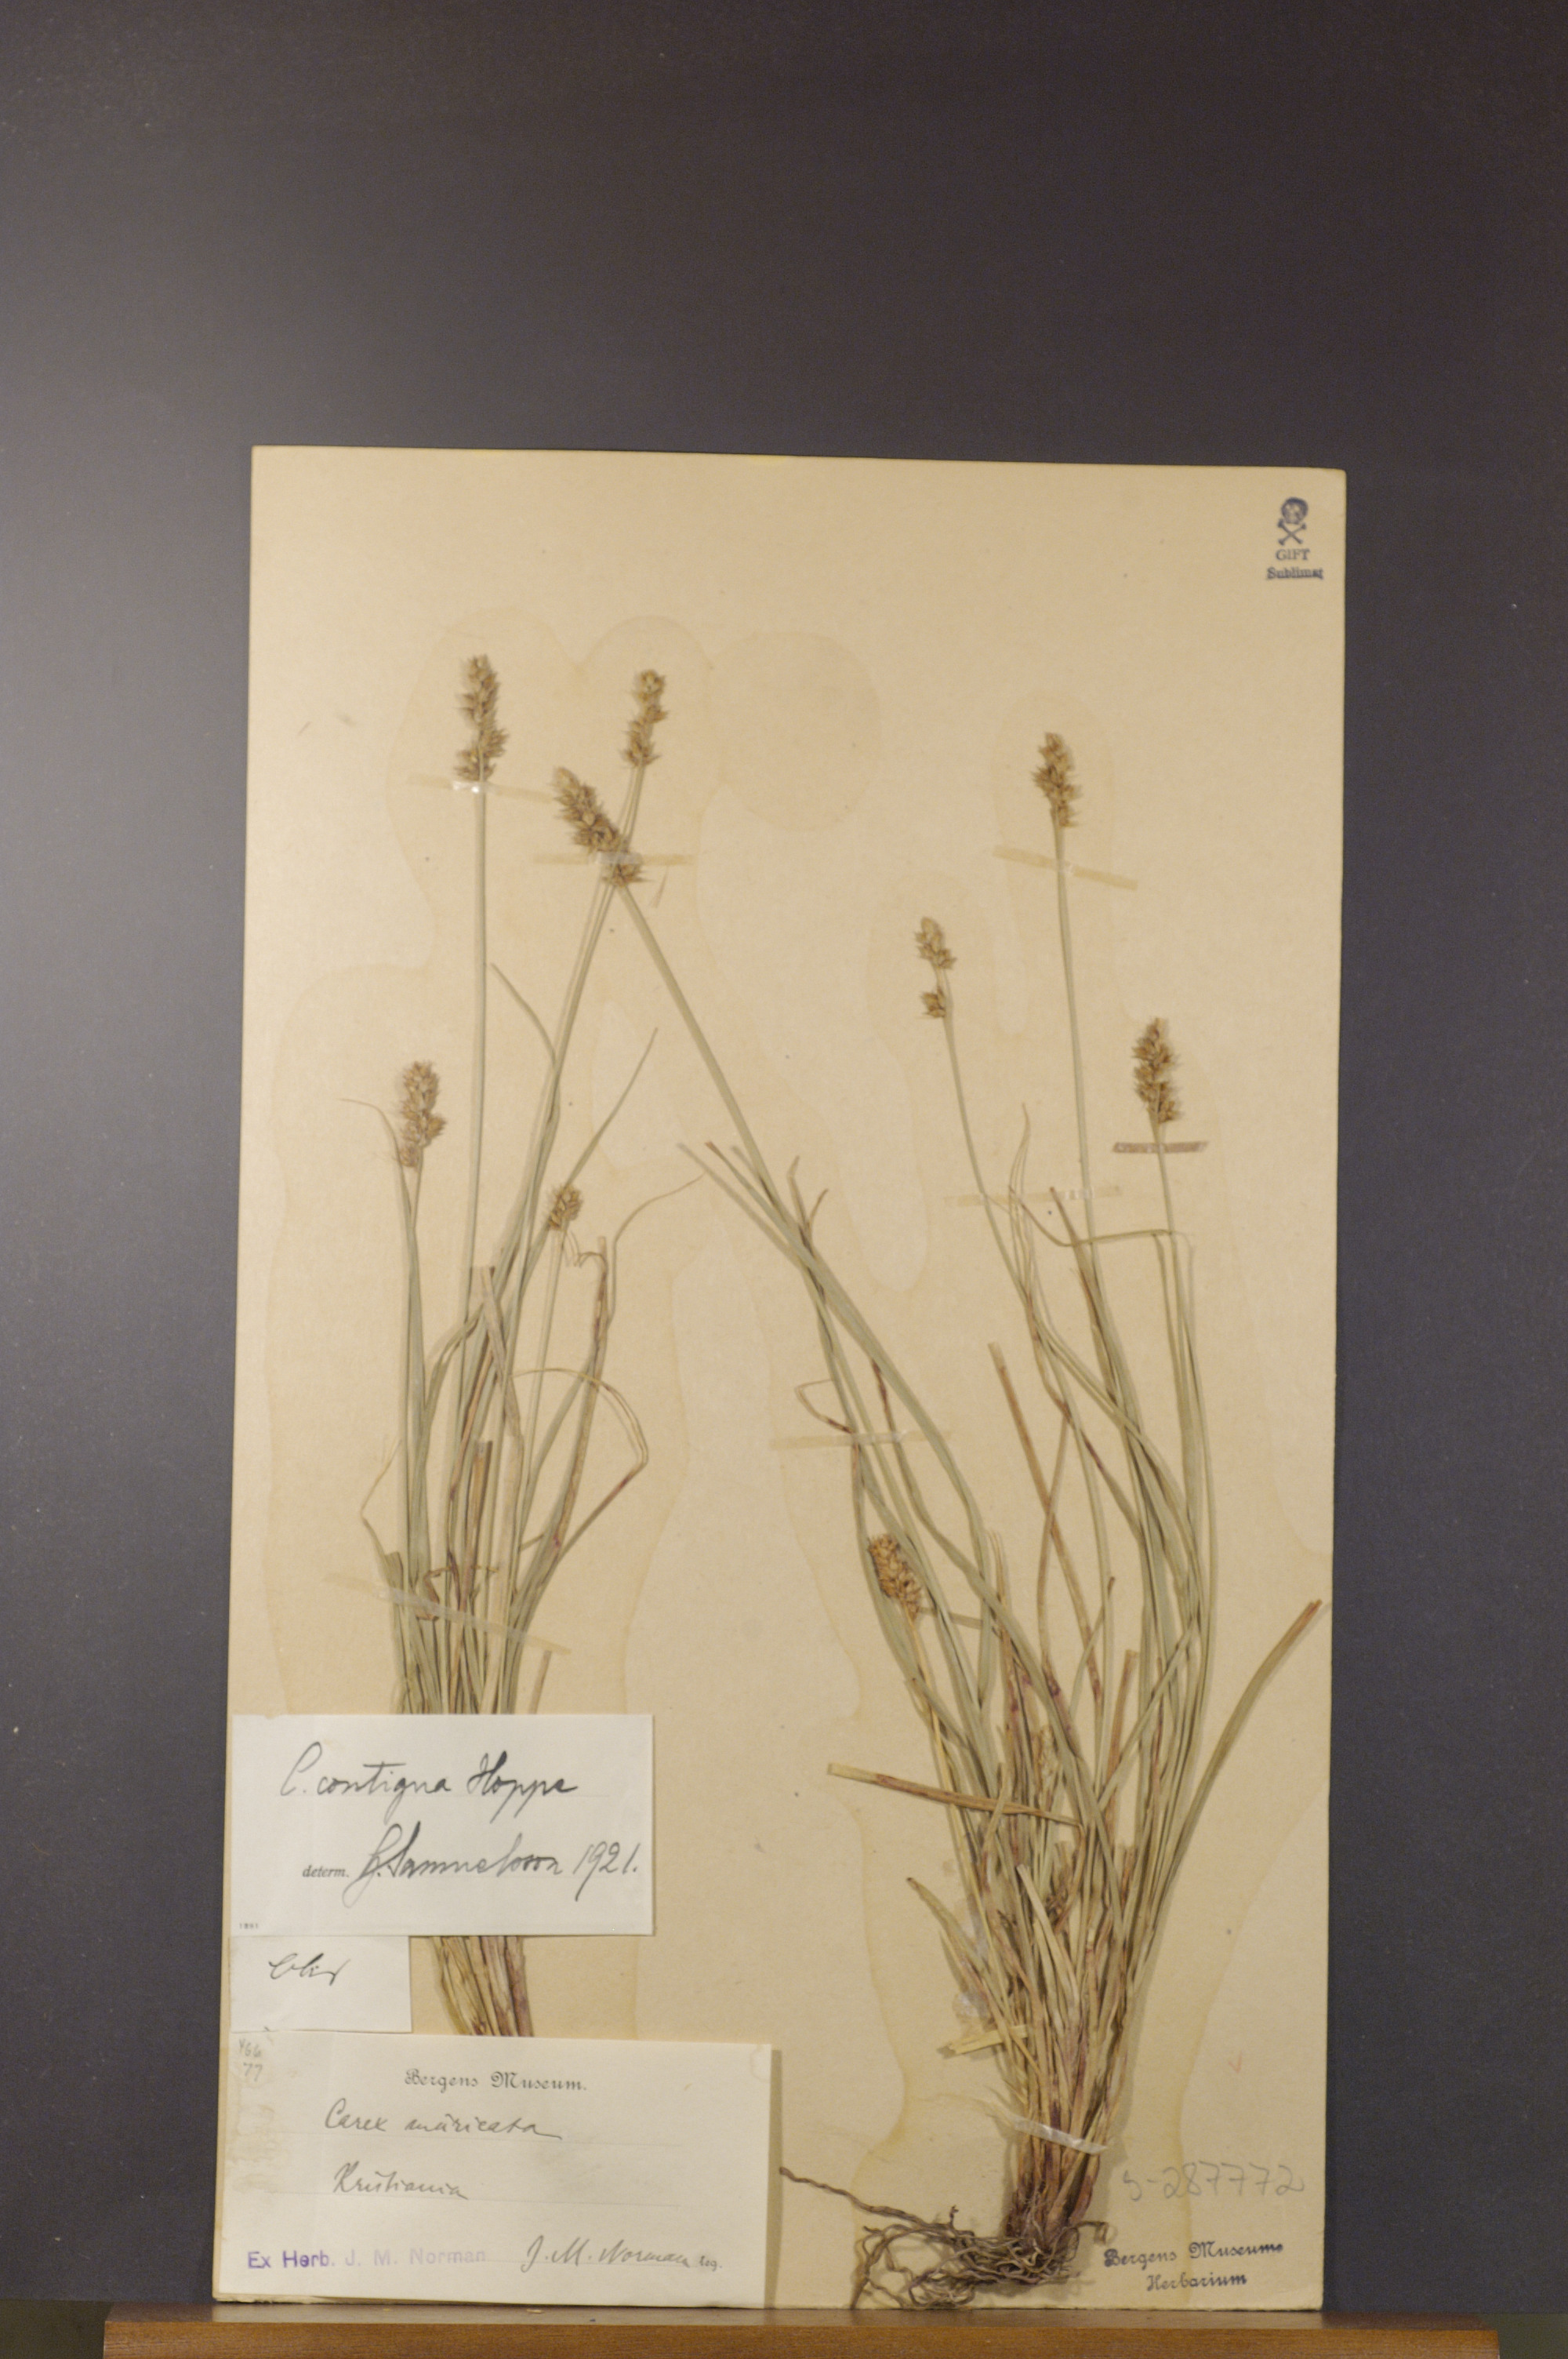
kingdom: Plantae
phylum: Tracheophyta
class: Liliopsida
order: Poales
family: Cyperaceae
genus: Carex
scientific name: Carex spicata
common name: Spiked sedge
